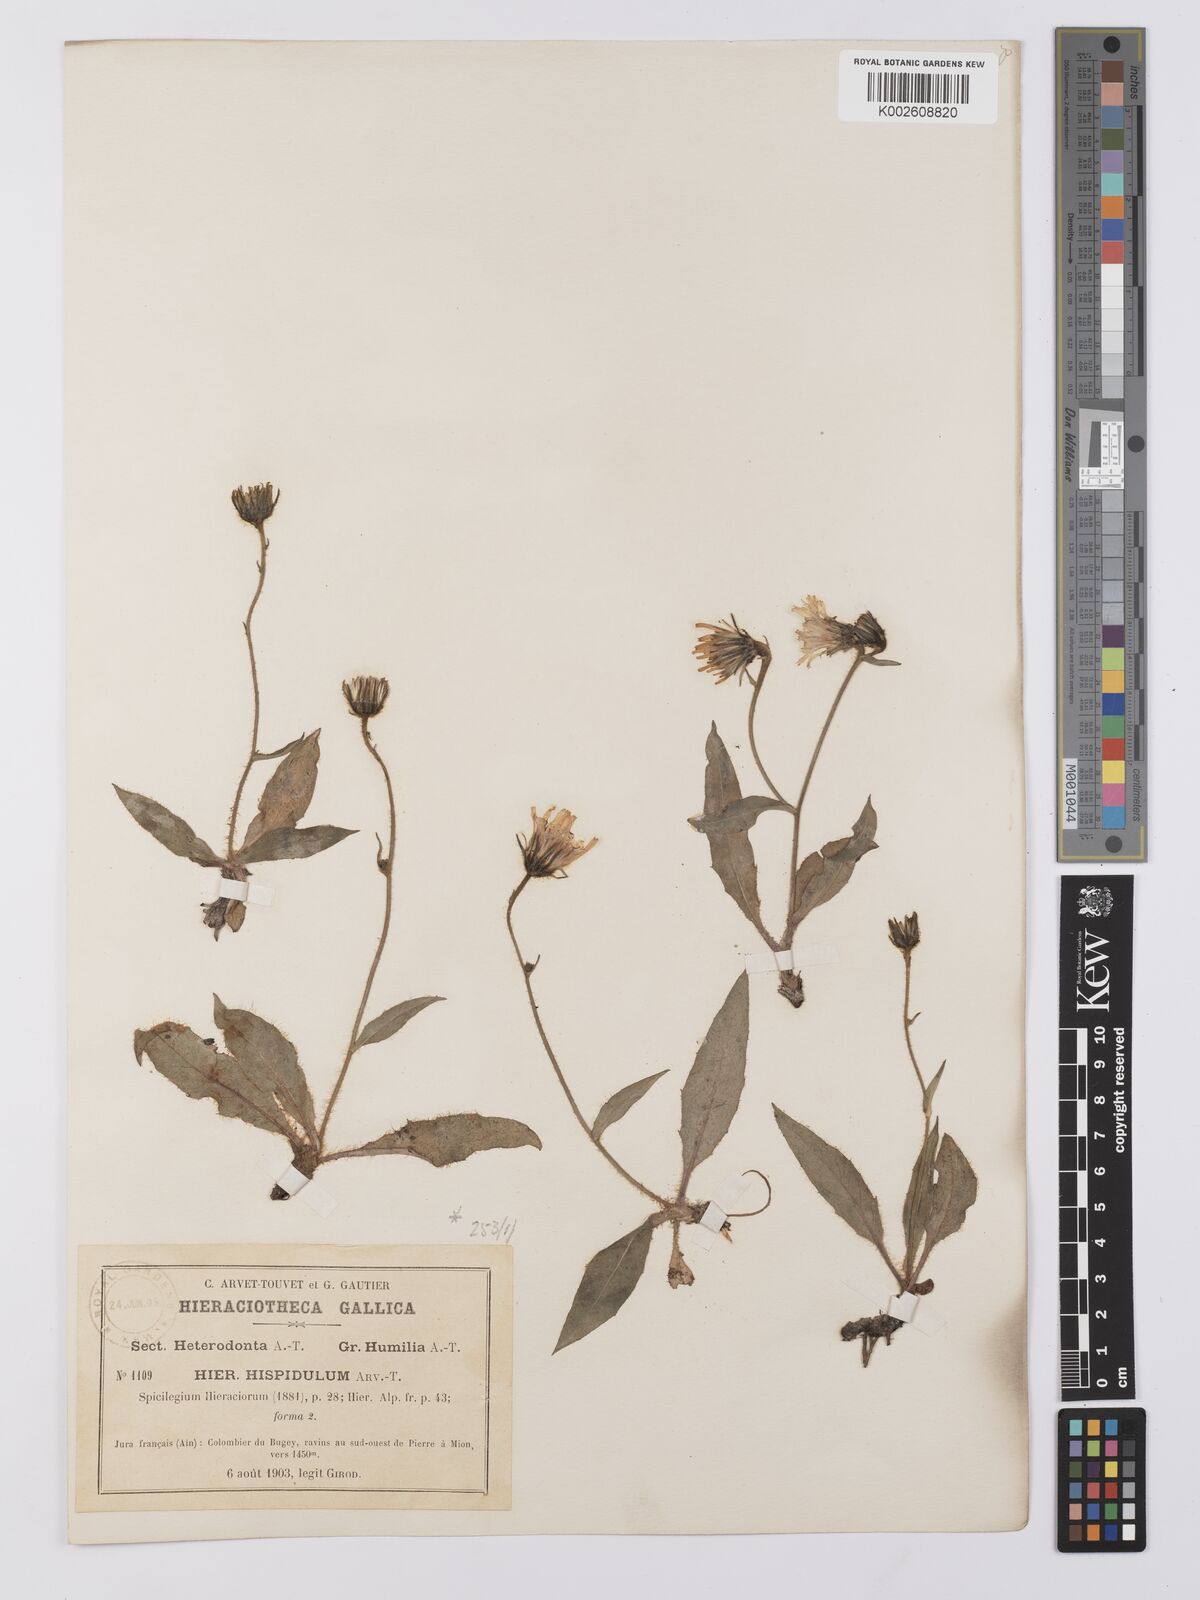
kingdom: Plantae
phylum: Tracheophyta
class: Magnoliopsida
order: Asterales
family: Asteraceae
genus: Hieracium
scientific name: Hieracium hispidulum
